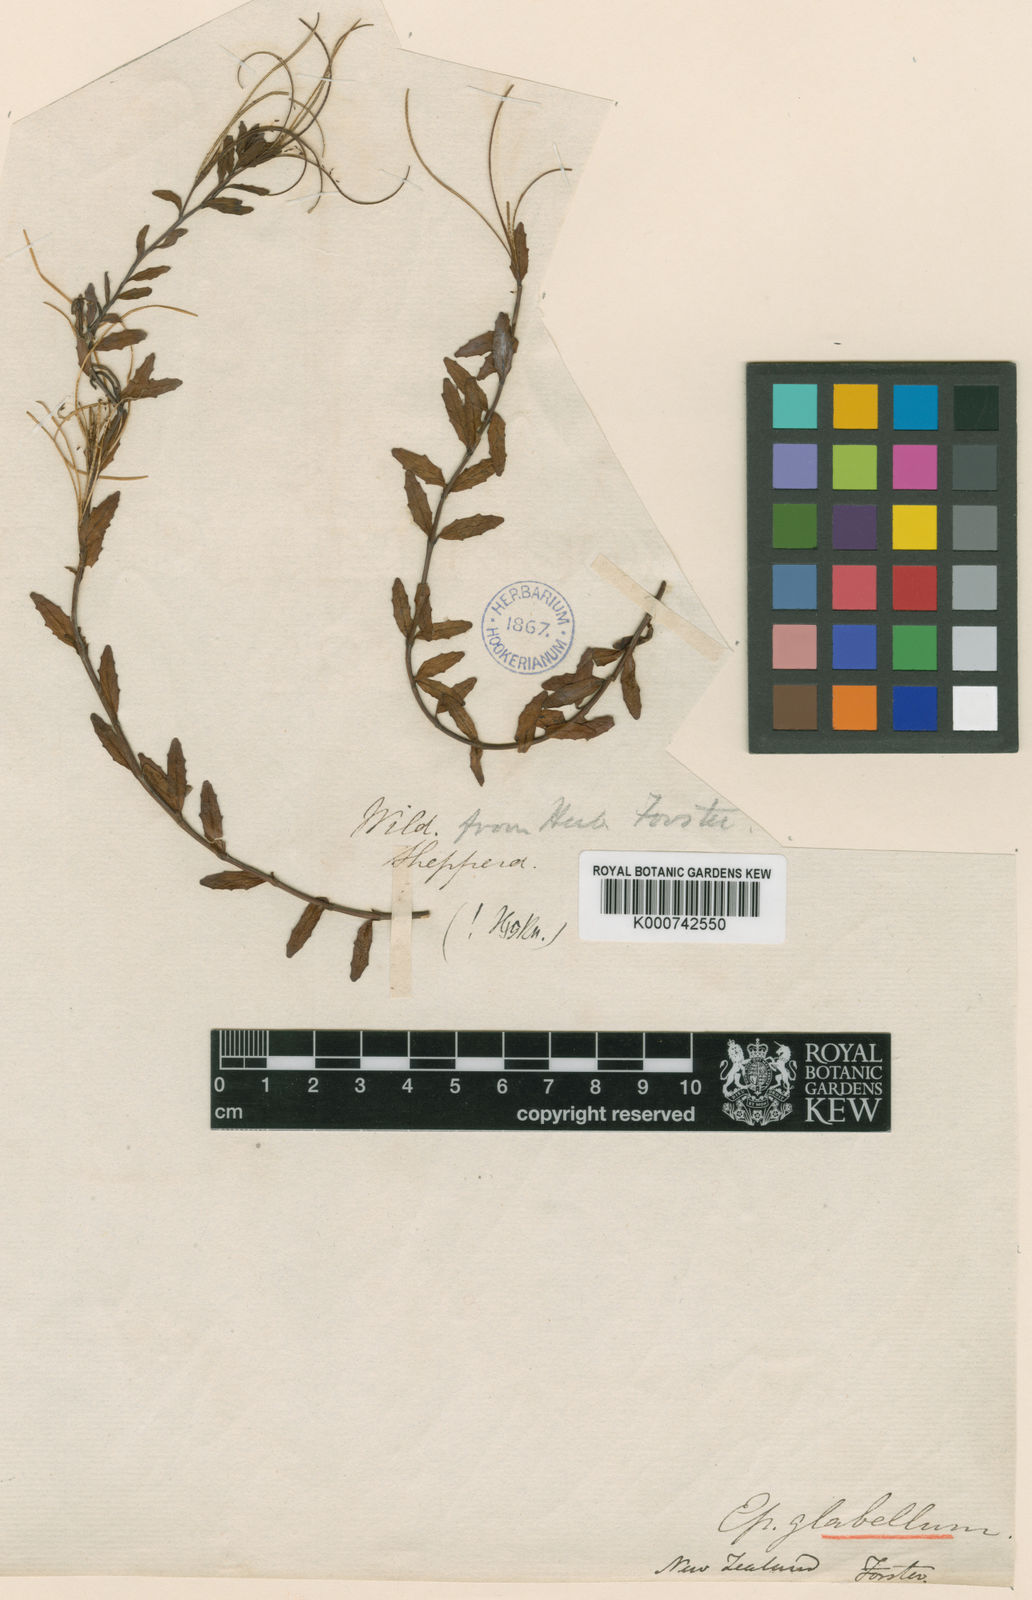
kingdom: Plantae
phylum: Tracheophyta
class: Magnoliopsida
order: Myrtales
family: Onagraceae
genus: Epilobium
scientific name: Epilobium glabellum
